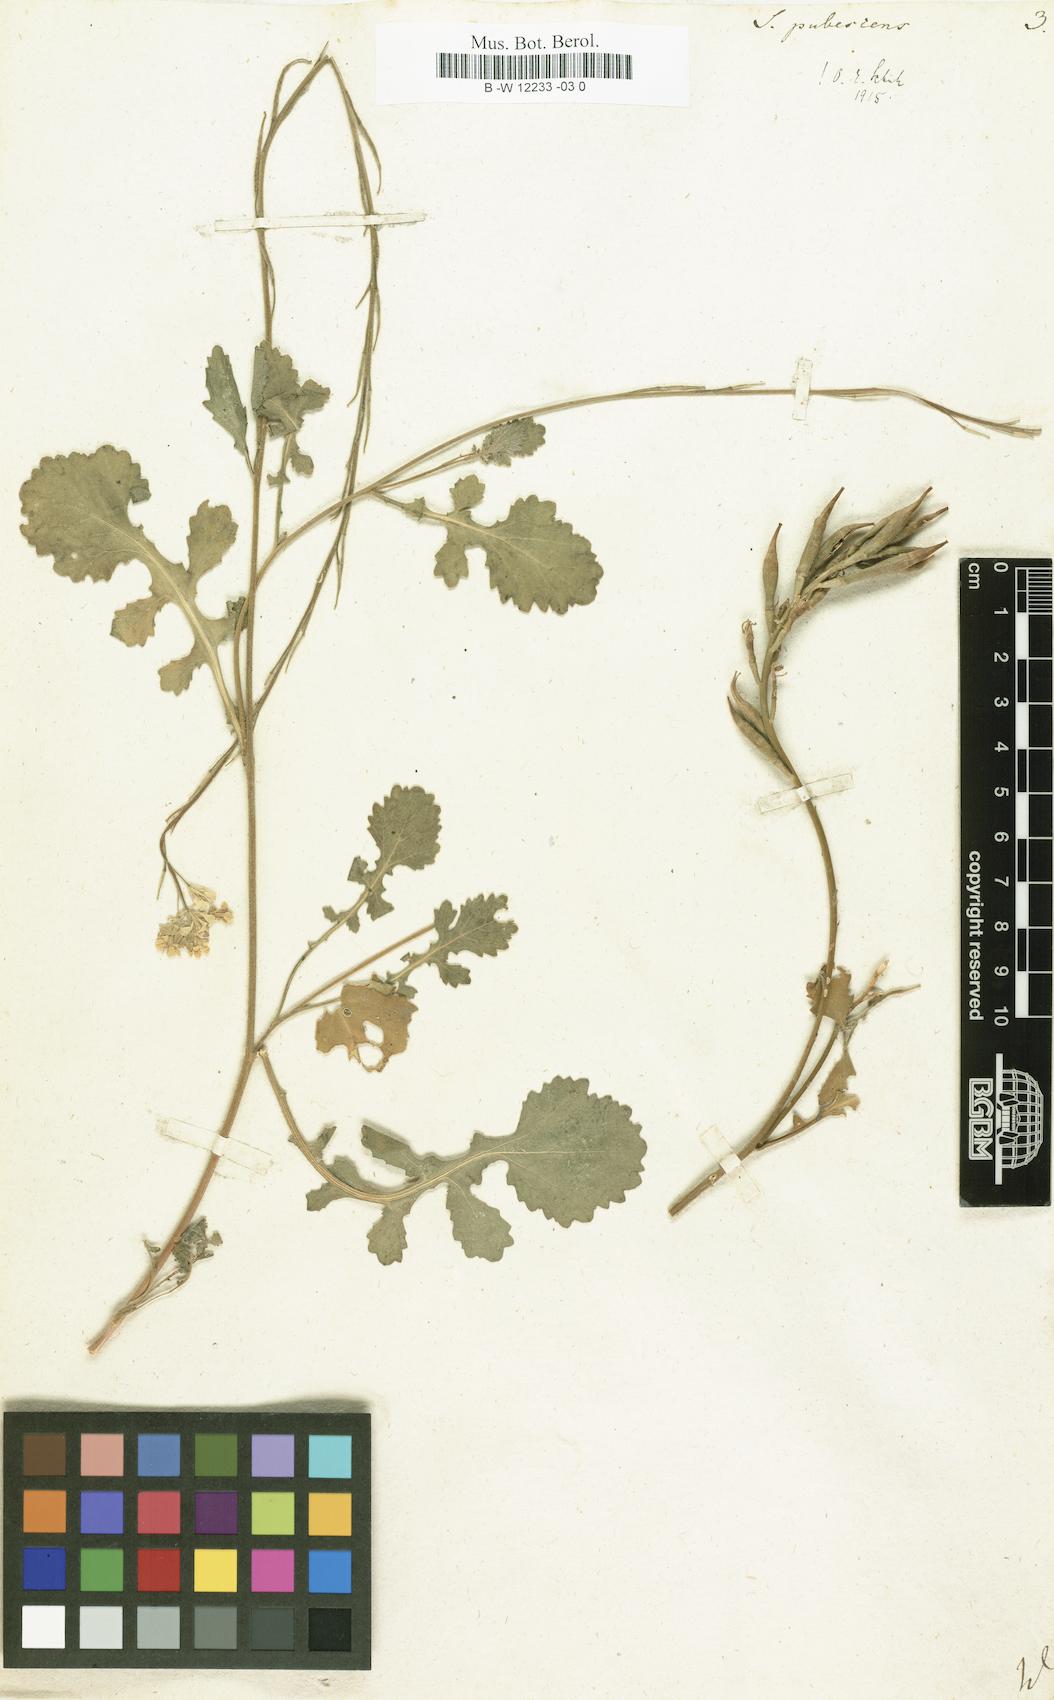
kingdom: Plantae
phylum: Tracheophyta
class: Magnoliopsida
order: Brassicales
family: Brassicaceae
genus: Sinapis
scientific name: Sinapis pubescens
